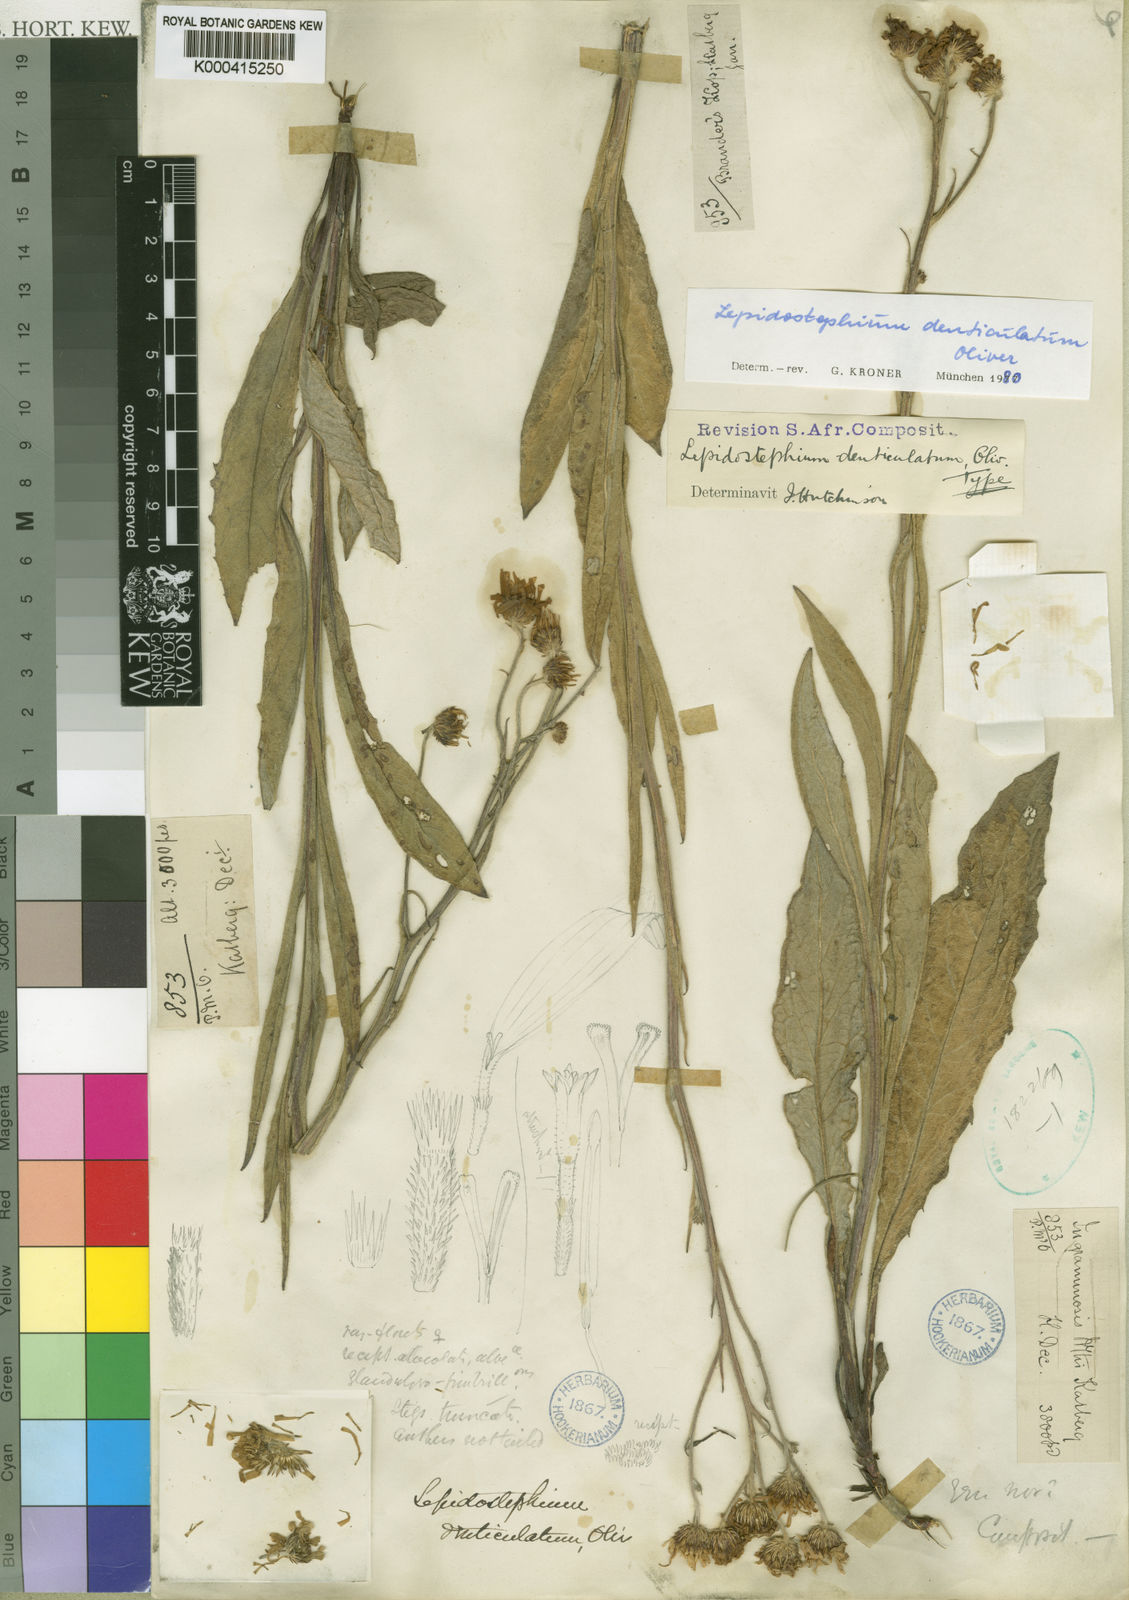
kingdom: Plantae
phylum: Tracheophyta
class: Magnoliopsida
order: Asterales
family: Asteraceae
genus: Lepidostephium
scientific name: Lepidostephium denticulatum
